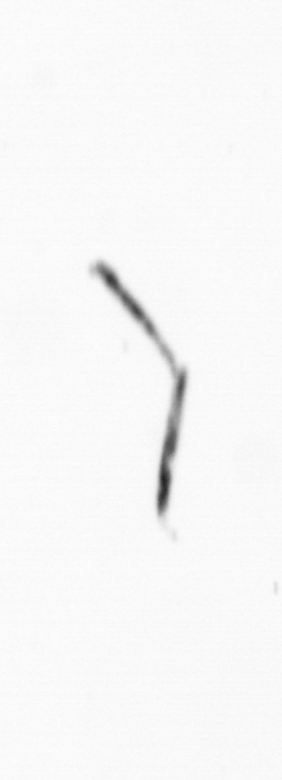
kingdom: Chromista
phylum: Ochrophyta
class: Bacillariophyceae
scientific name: Bacillariophyceae
